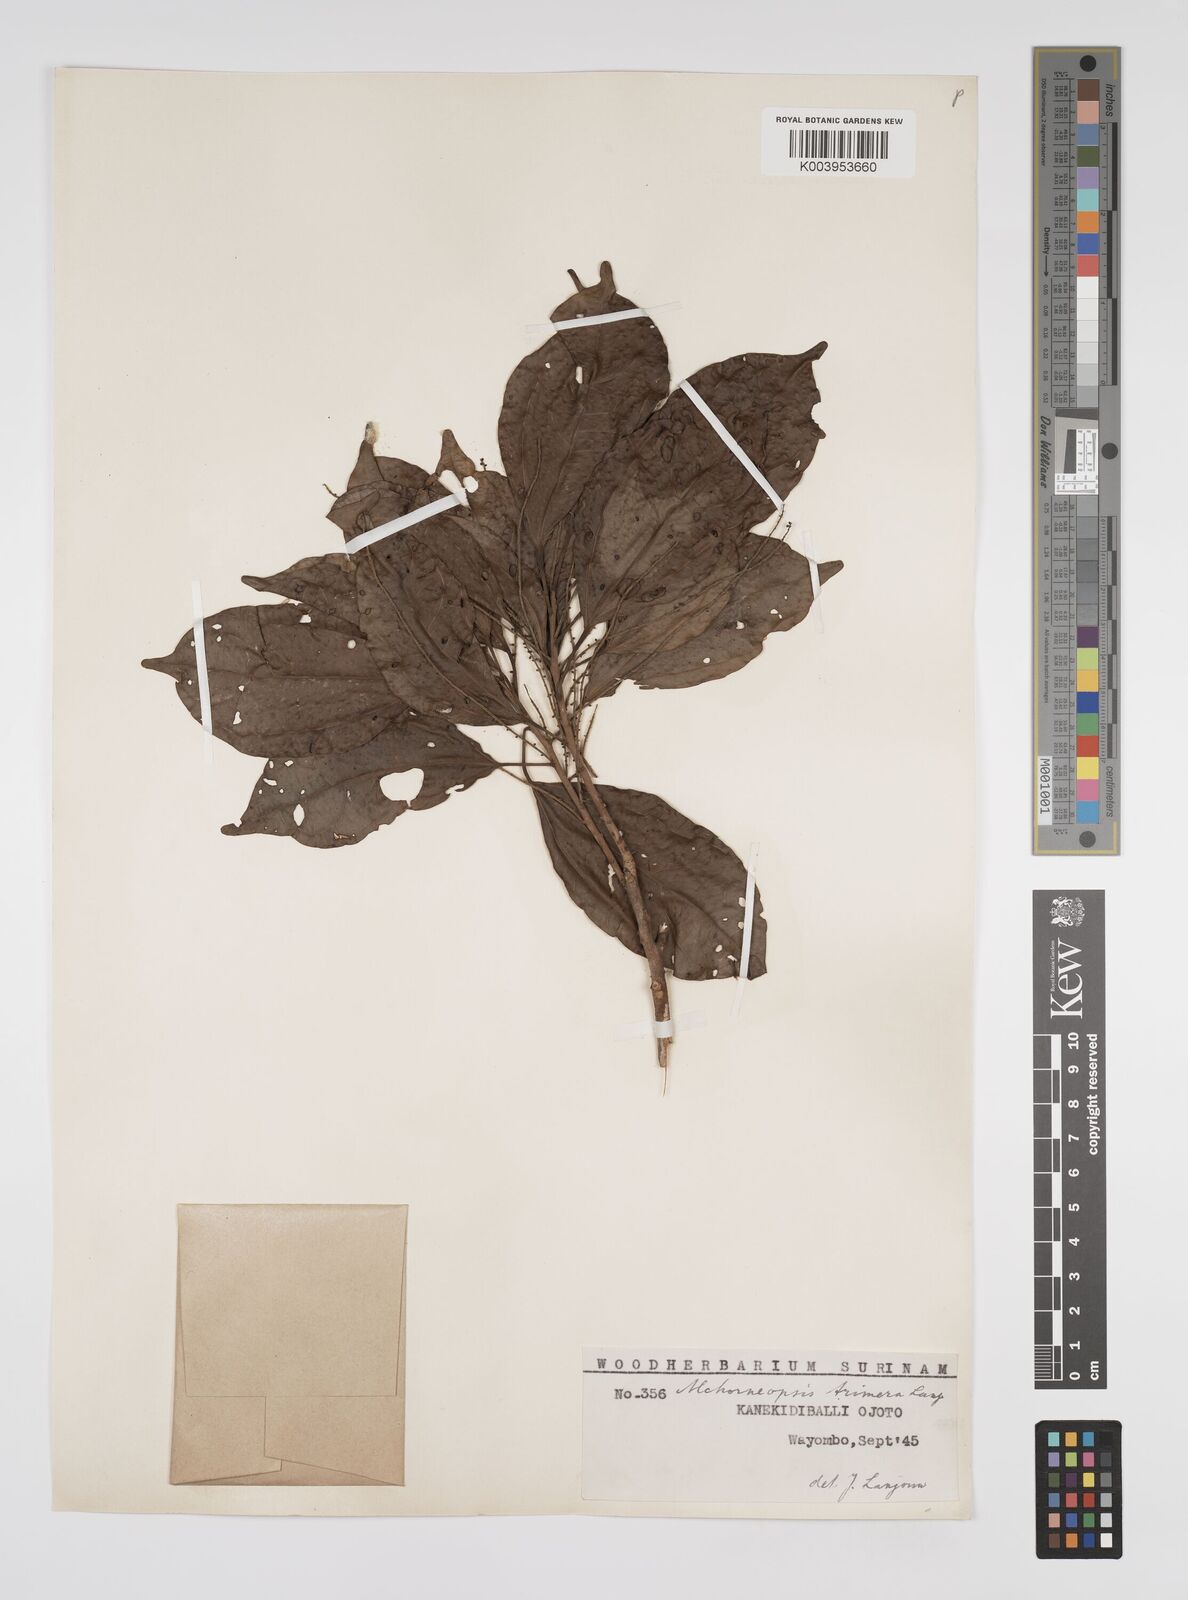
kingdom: Plantae
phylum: Tracheophyta
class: Magnoliopsida
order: Malpighiales
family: Euphorbiaceae
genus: Alchorneopsis
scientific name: Alchorneopsis floribunda
